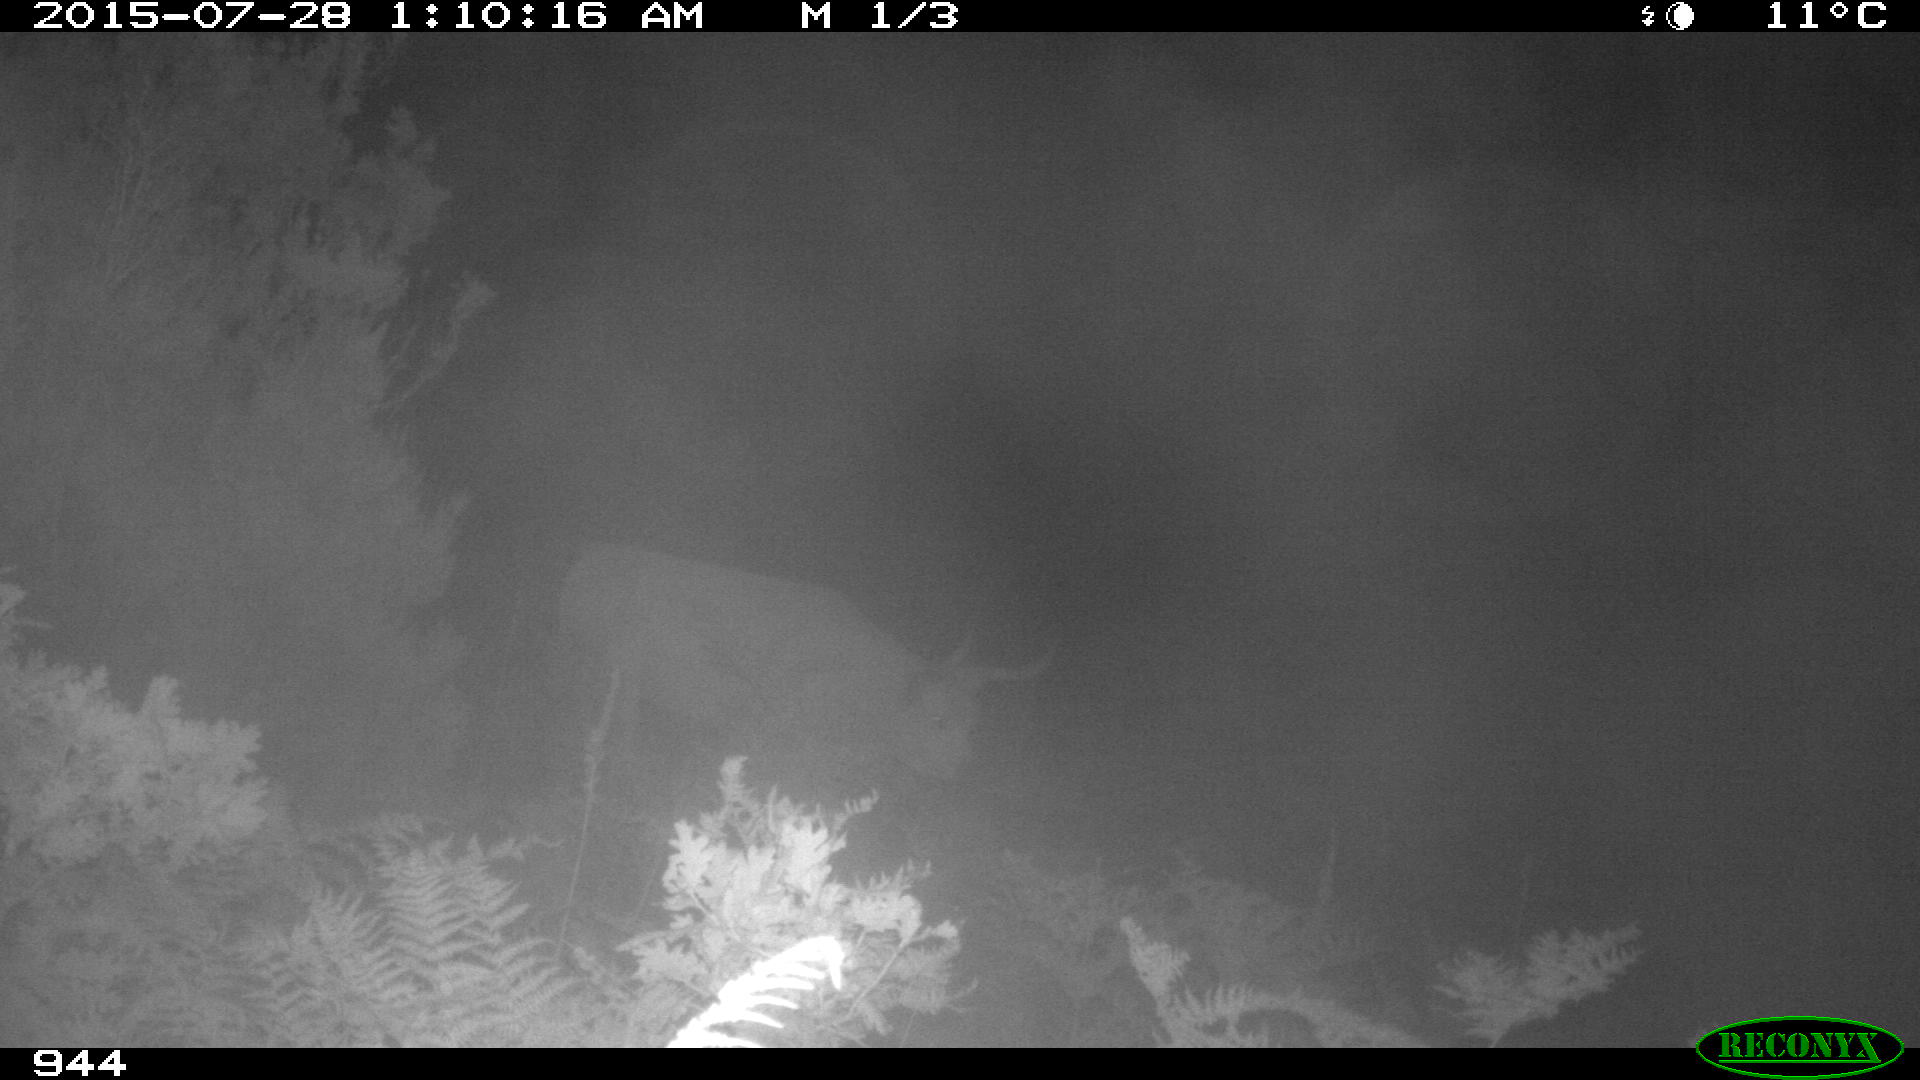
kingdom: Animalia
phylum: Chordata
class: Mammalia
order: Artiodactyla
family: Bovidae
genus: Bos
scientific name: Bos taurus
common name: Domesticated cattle
